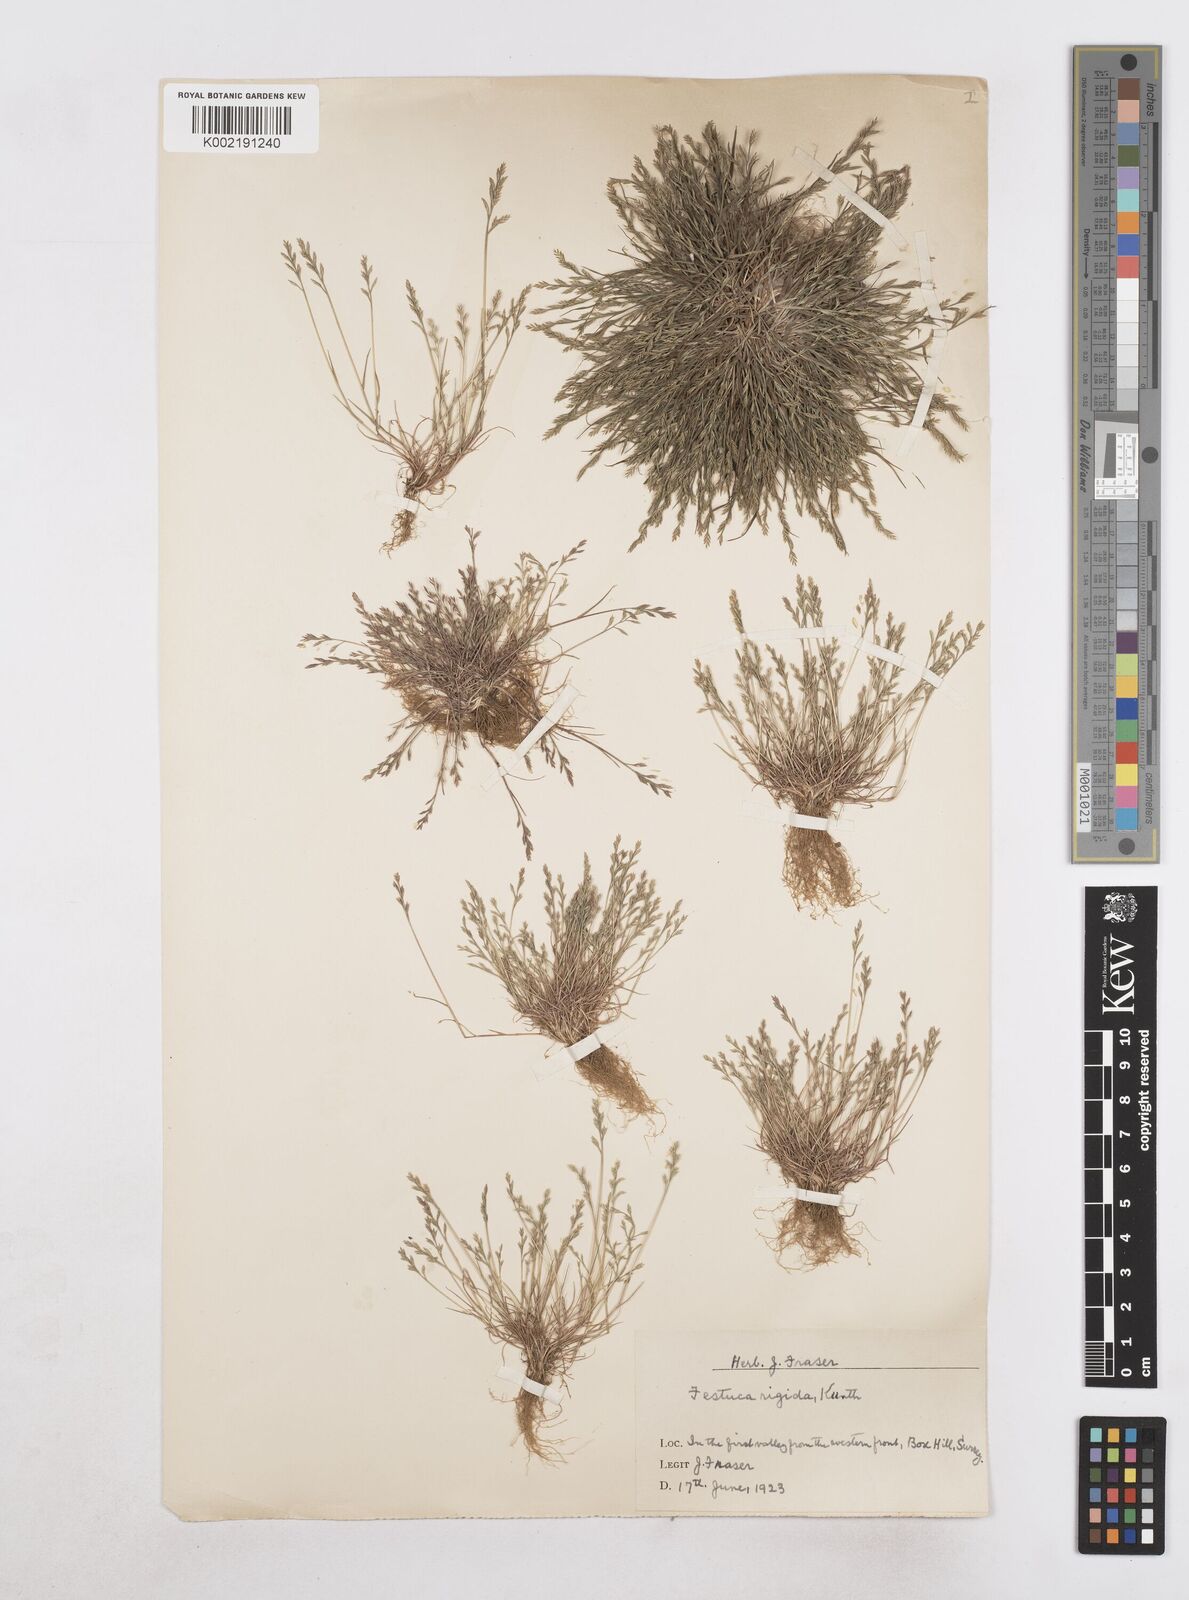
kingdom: Plantae
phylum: Tracheophyta
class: Liliopsida
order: Poales
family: Poaceae
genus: Catapodium
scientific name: Catapodium rigidum
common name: Fern-grass
